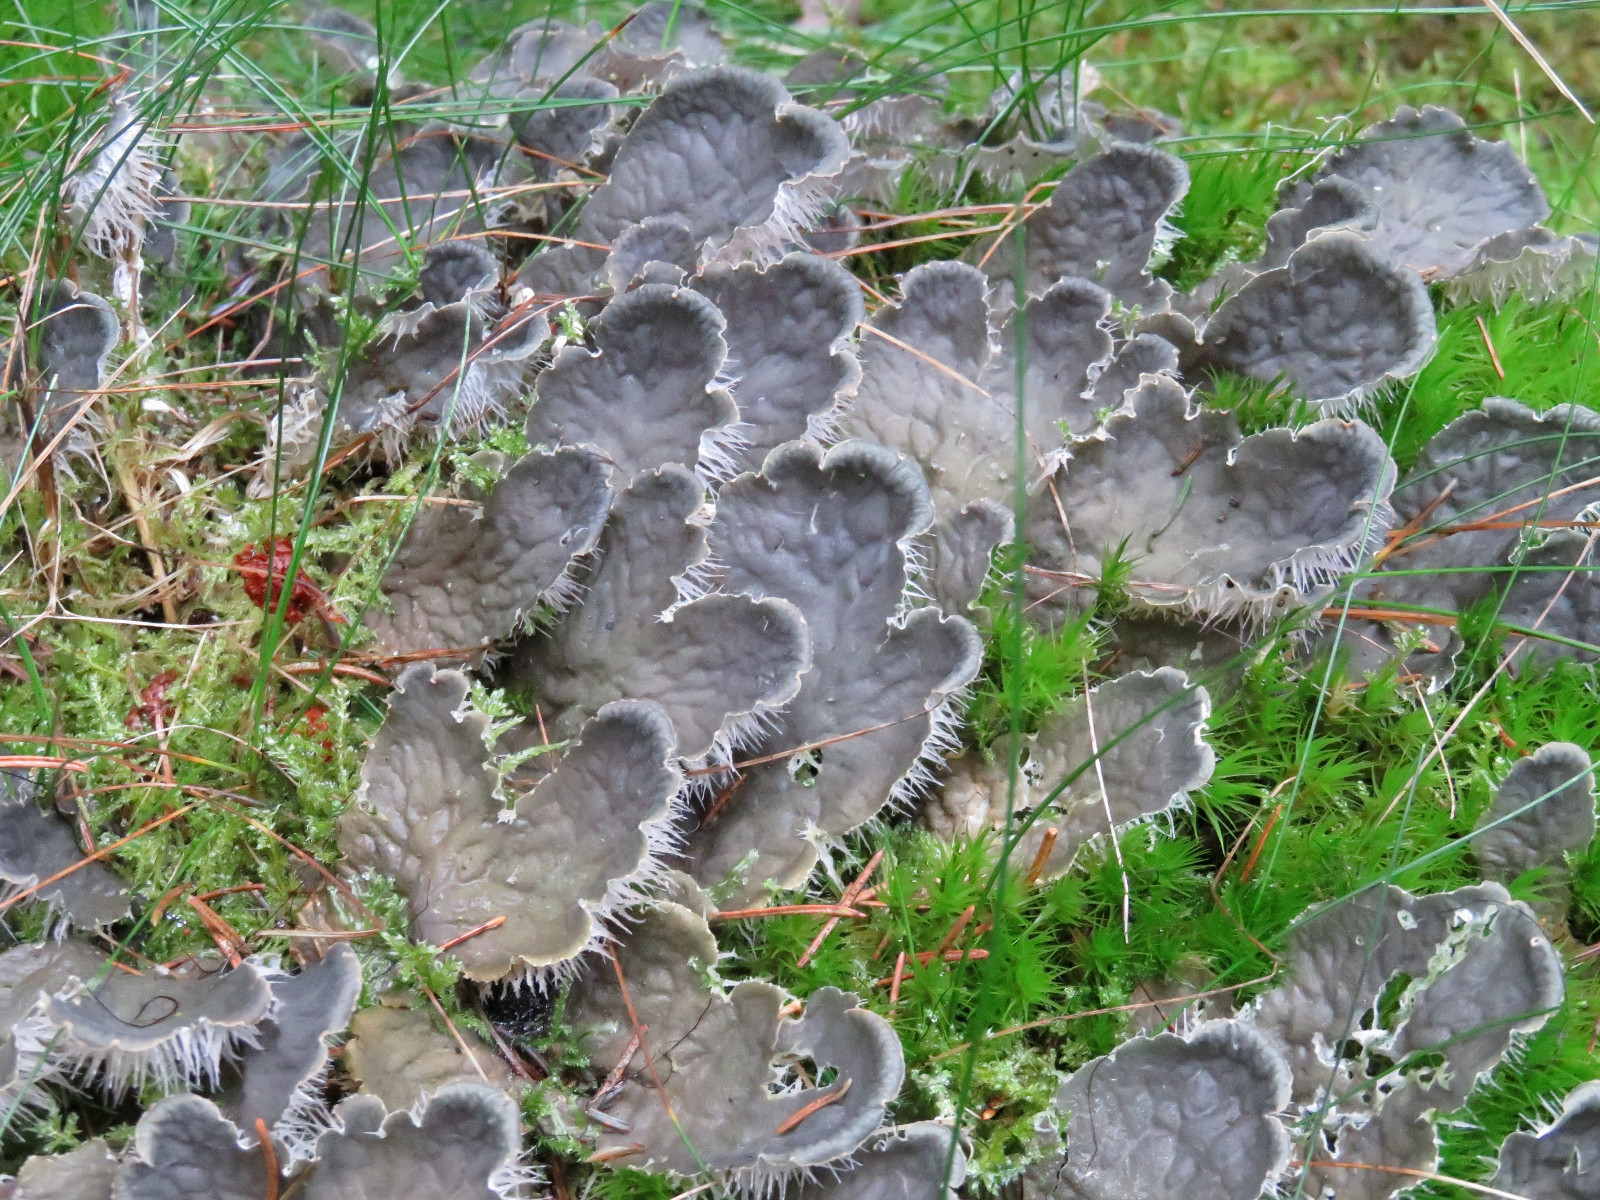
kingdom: Fungi
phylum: Ascomycota
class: Lecanoromycetes
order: Peltigerales
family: Peltigeraceae
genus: Peltigera
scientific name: Peltigera membranacea
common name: tynd skjoldlav
